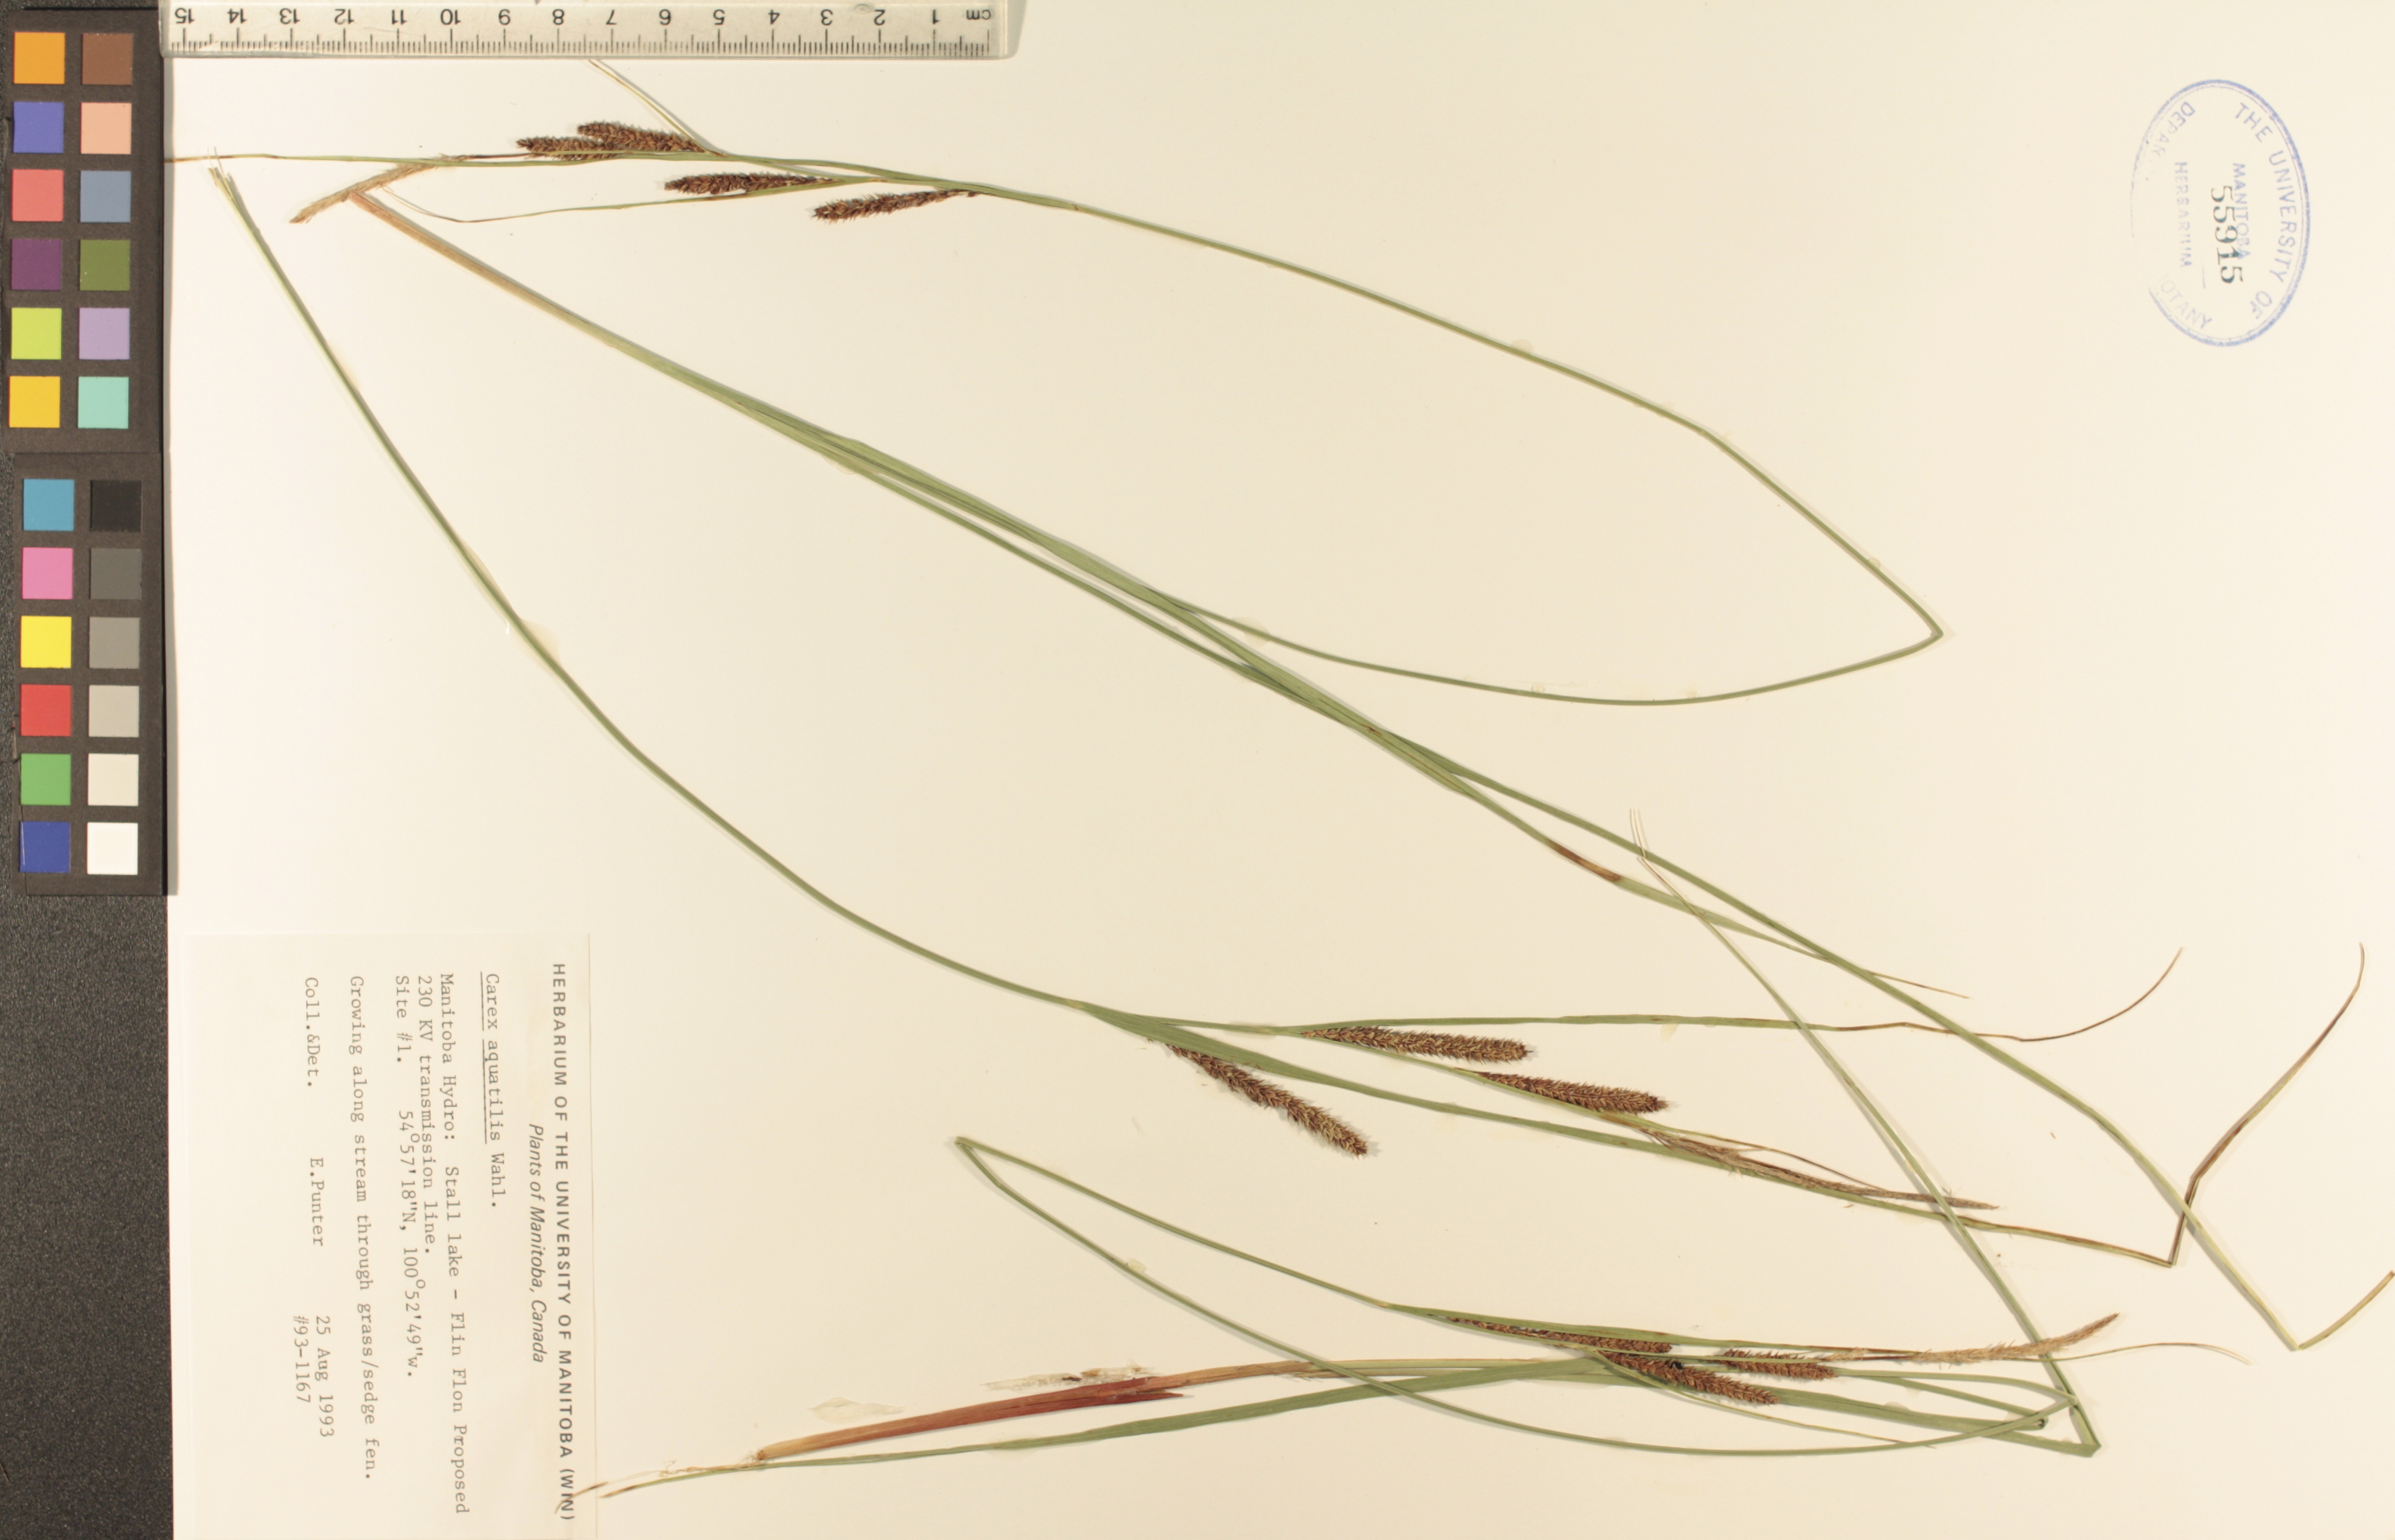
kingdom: Plantae
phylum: Tracheophyta
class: Liliopsida
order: Poales
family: Cyperaceae
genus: Carex
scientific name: Carex aquatilis
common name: Water sedge
